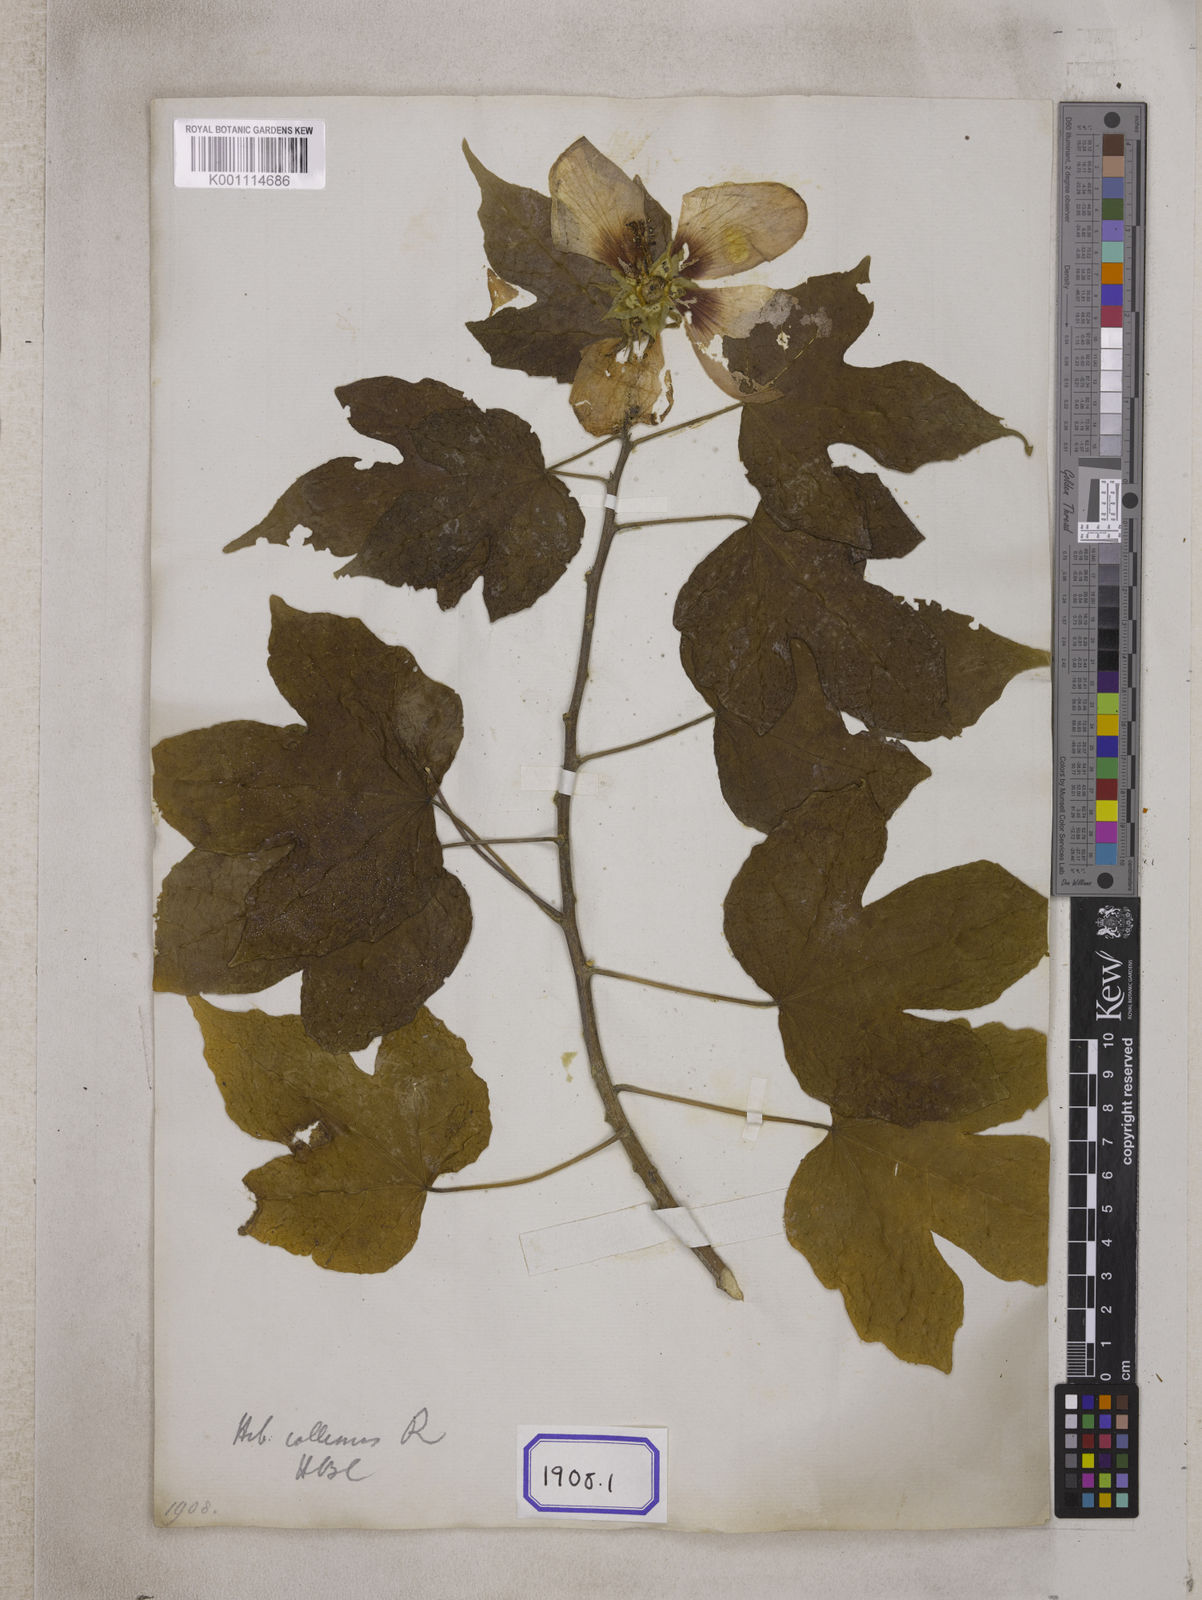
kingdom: Plantae
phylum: Tracheophyta
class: Magnoliopsida
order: Malvales
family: Malvaceae
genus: Hibiscus
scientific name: Hibiscus
